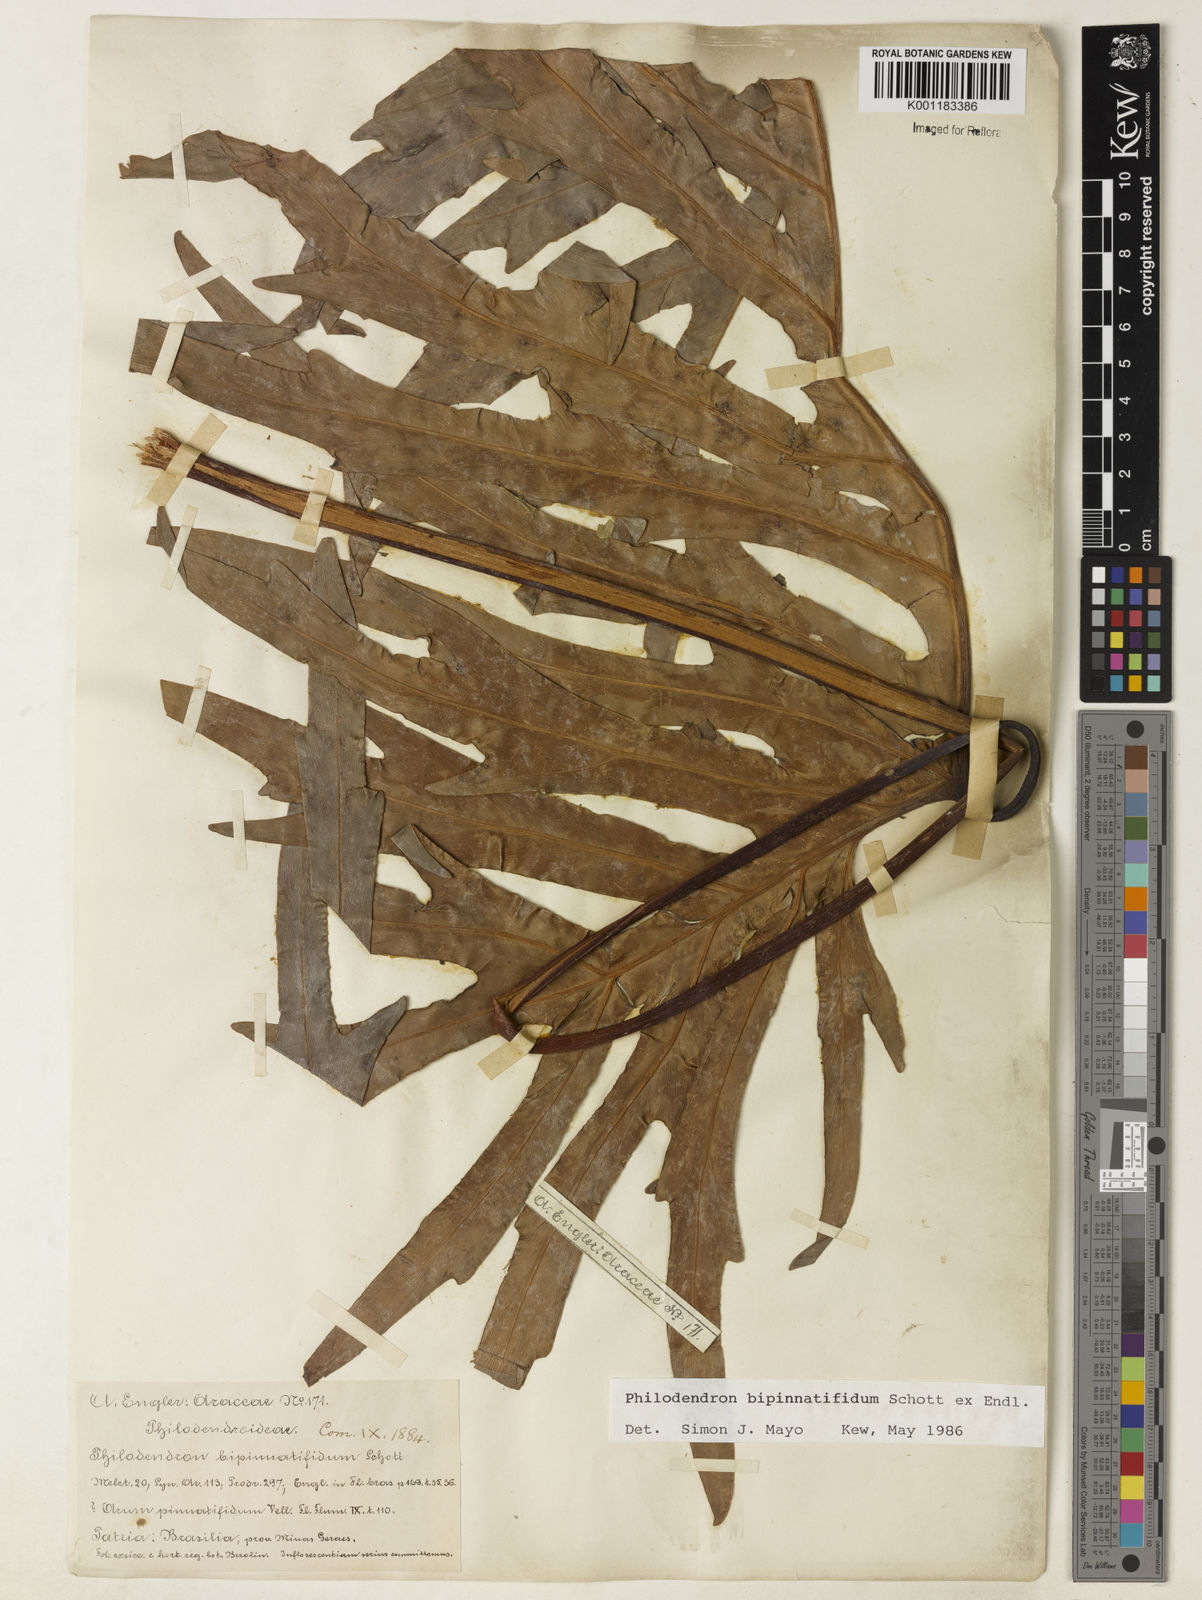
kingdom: Plantae
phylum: Tracheophyta
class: Liliopsida
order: Alismatales
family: Araceae
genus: Philodendron
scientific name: Philodendron
